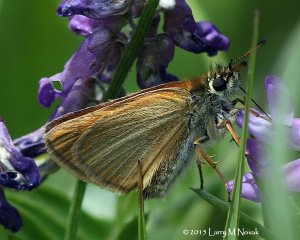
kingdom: Animalia
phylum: Arthropoda
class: Insecta
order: Lepidoptera
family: Hesperiidae
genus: Thymelicus
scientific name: Thymelicus lineola
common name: European Skipper
